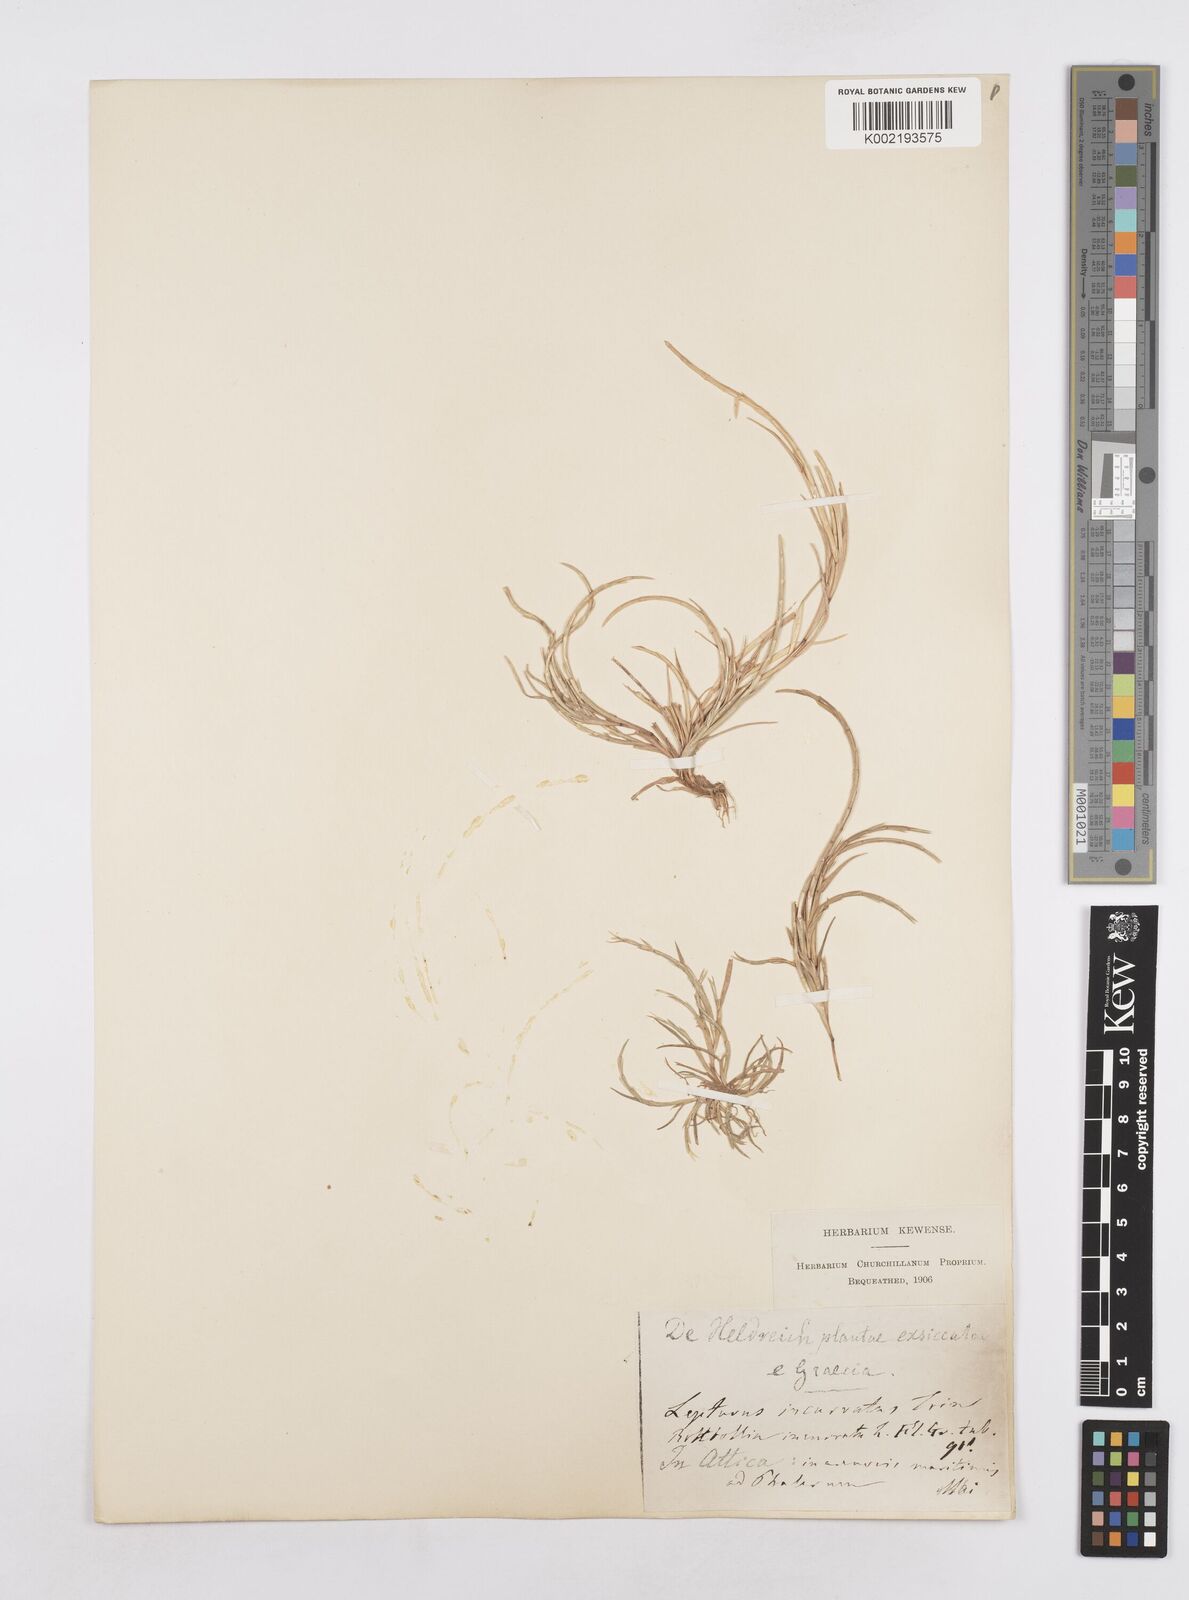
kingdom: Plantae
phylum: Tracheophyta
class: Liliopsida
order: Poales
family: Poaceae
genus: Parapholis
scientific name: Parapholis incurva
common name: Curved sicklegrass
